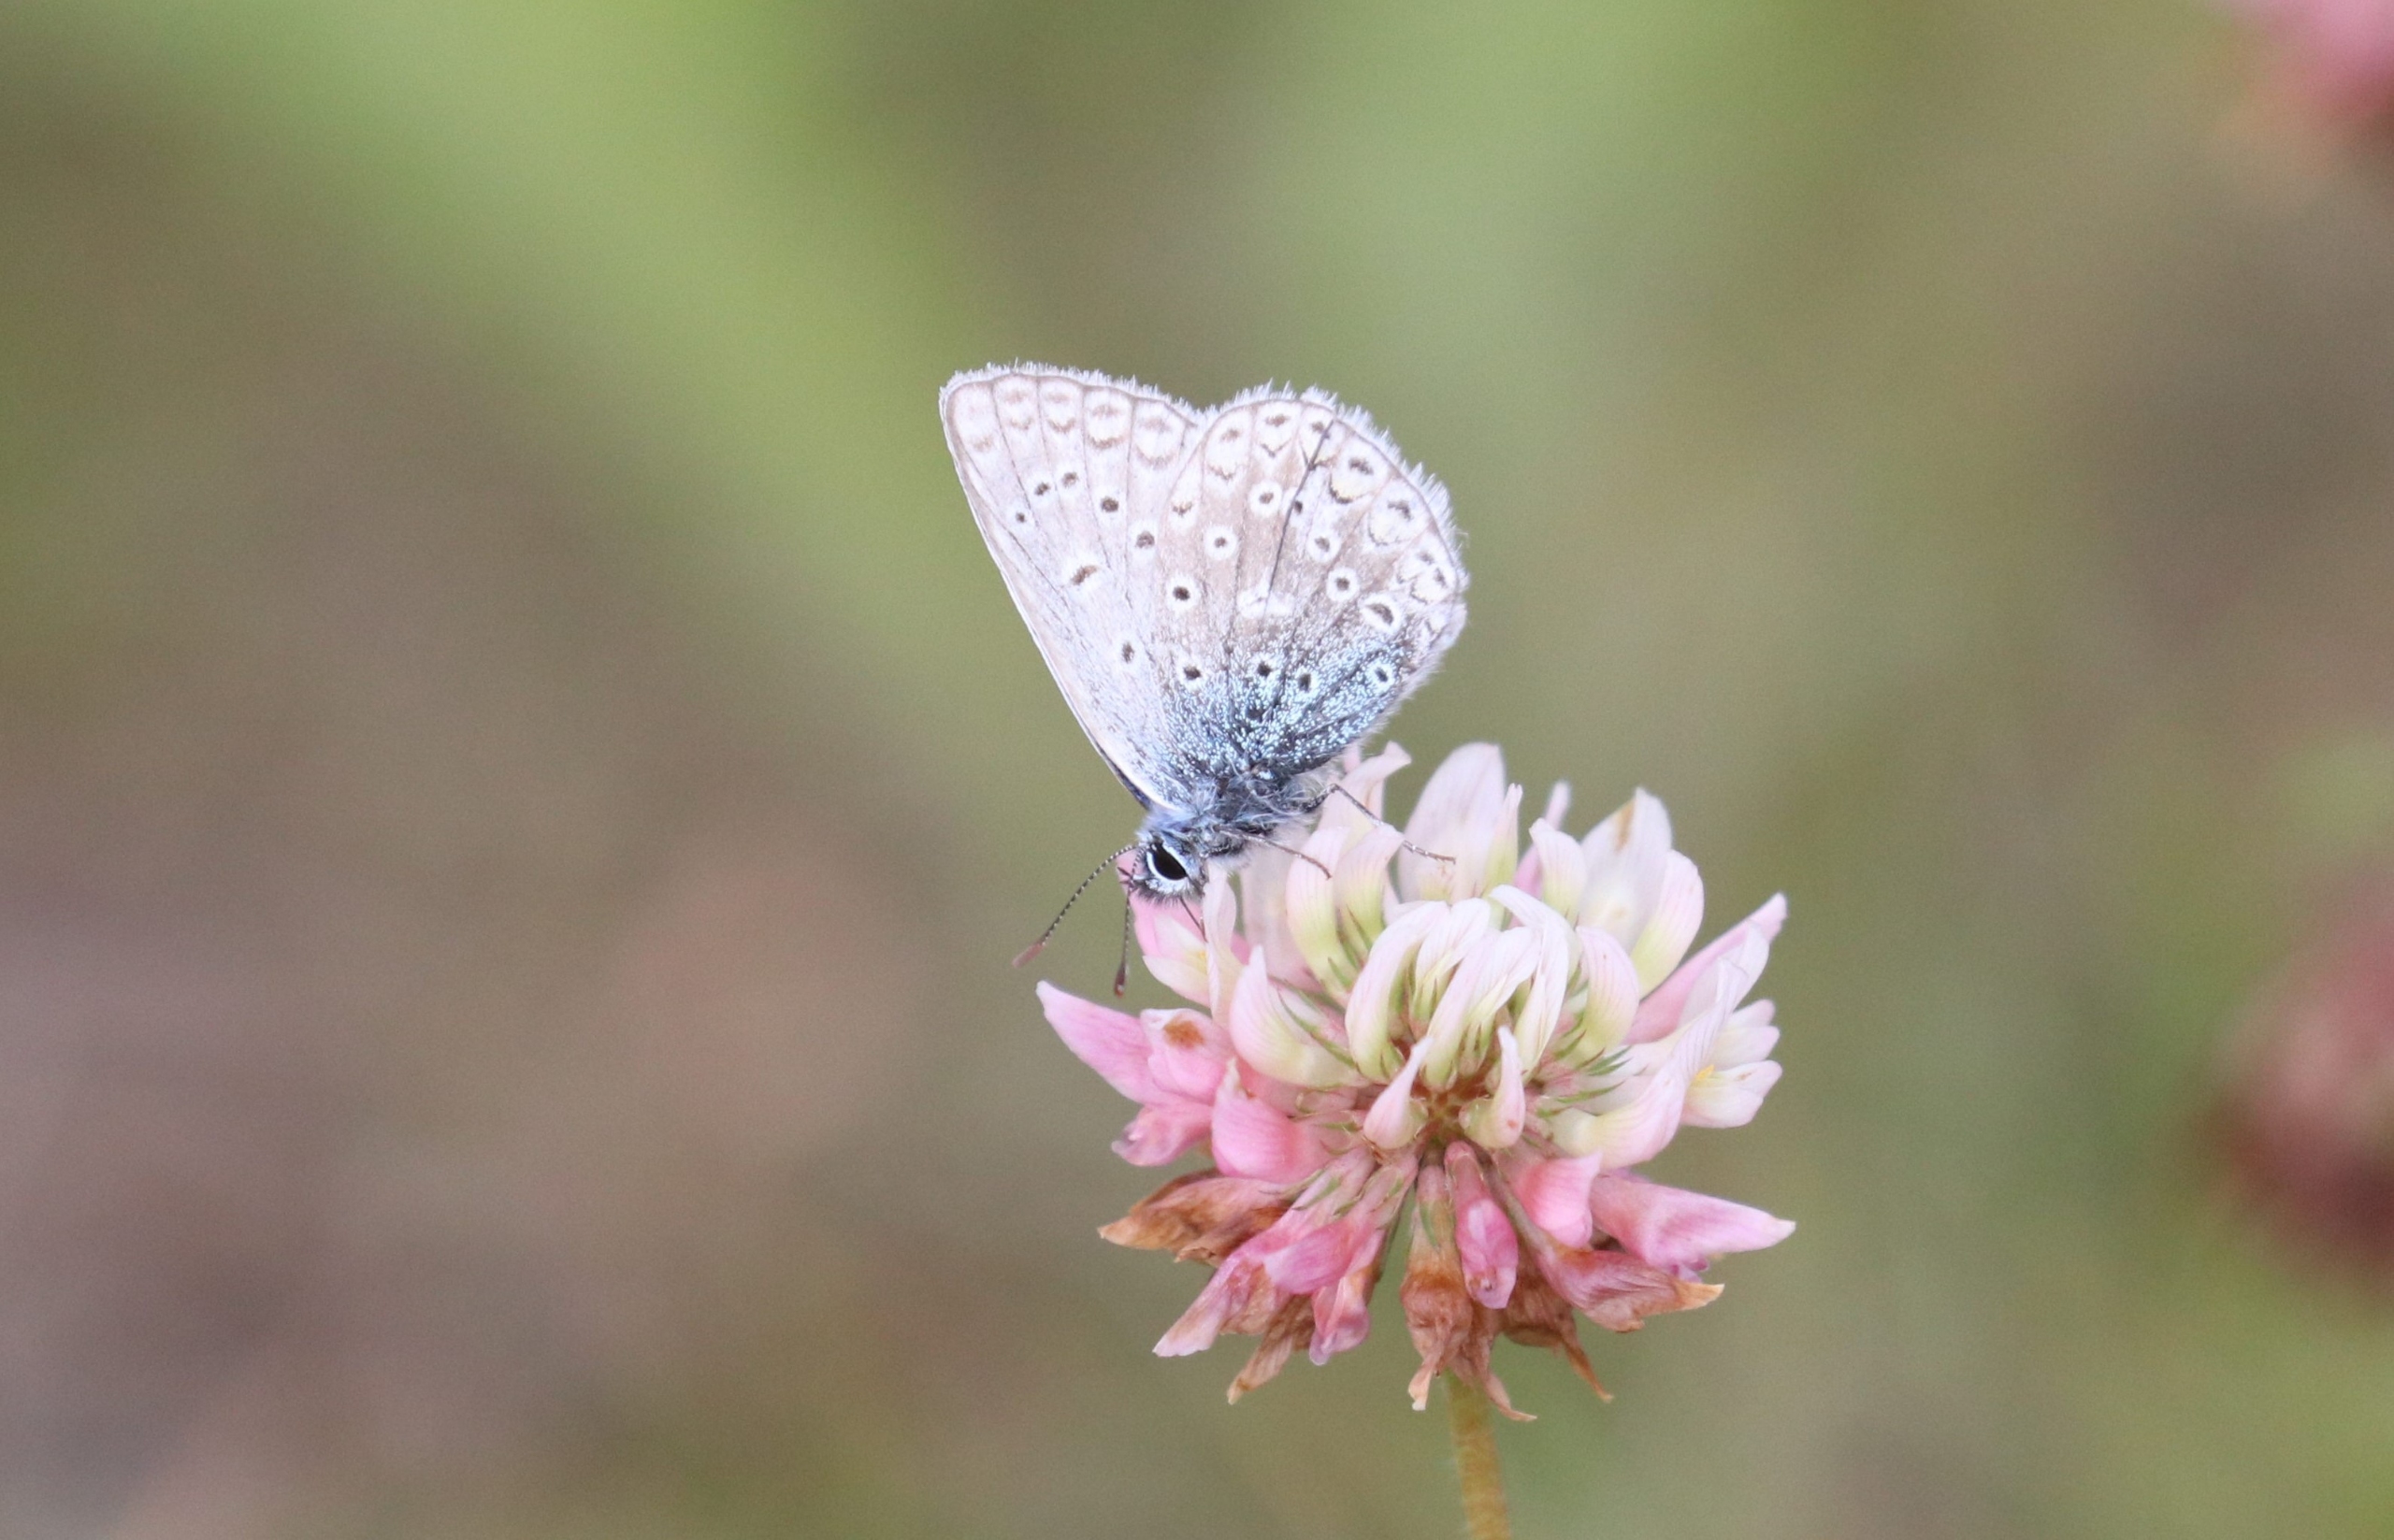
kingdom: Animalia
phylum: Arthropoda
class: Insecta
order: Lepidoptera
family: Lycaenidae
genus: Polyommatus
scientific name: Polyommatus icarus
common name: Almindelig blåfugl
